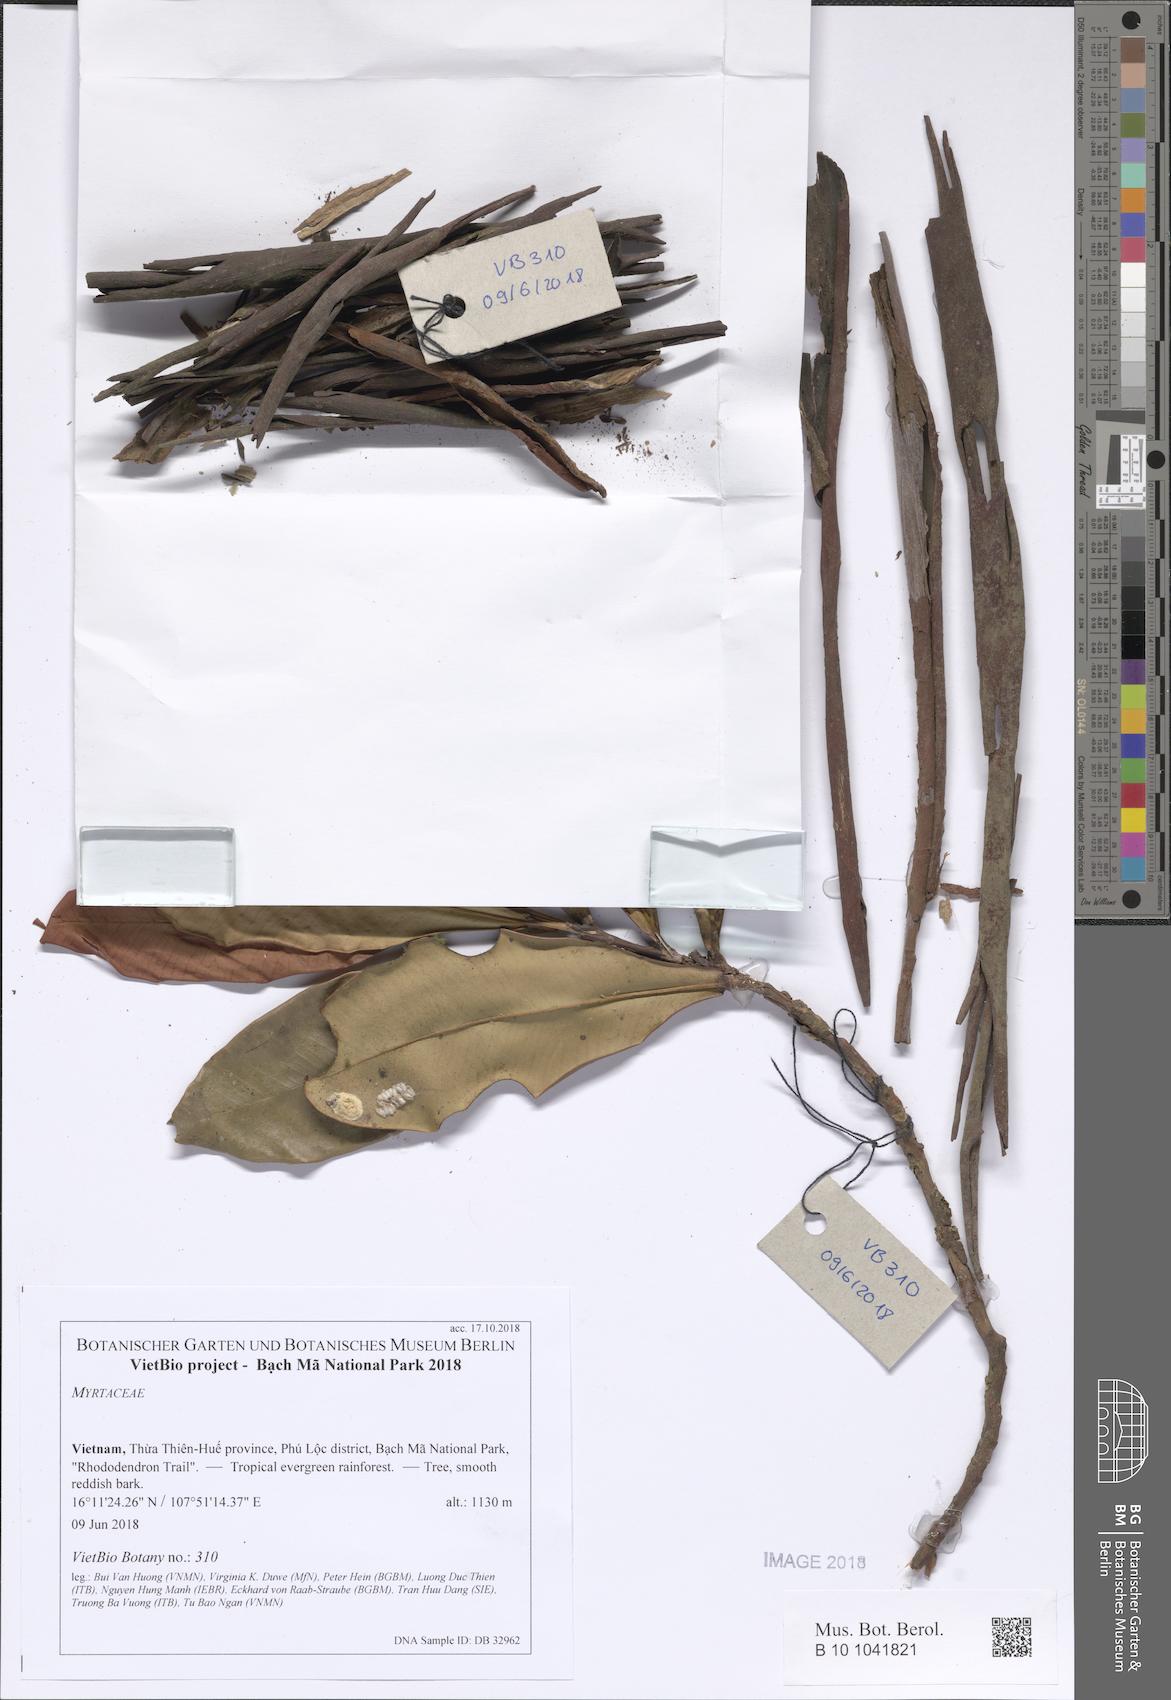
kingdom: Plantae
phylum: Tracheophyta
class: Magnoliopsida
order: Myrtales
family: Myrtaceae
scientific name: Myrtaceae
